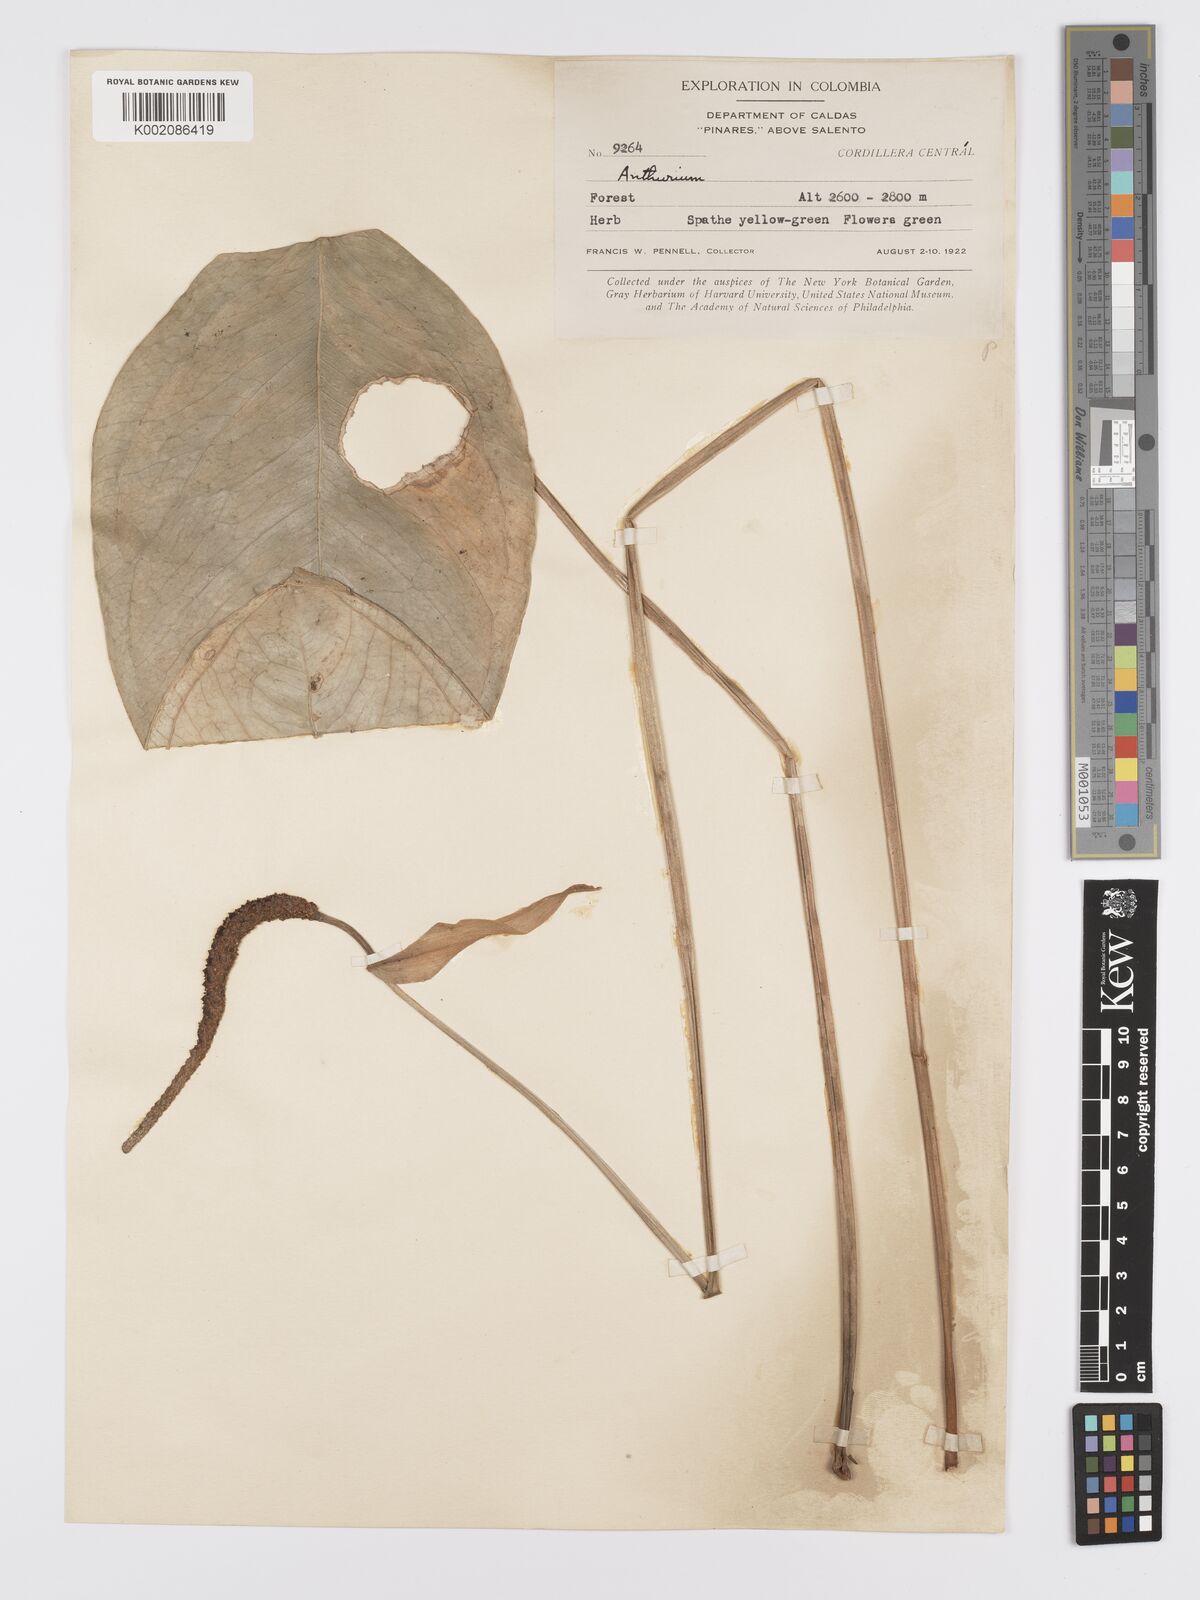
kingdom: Plantae
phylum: Tracheophyta
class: Liliopsida
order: Alismatales
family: Araceae
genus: Anthurium
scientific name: Anthurium longegeniculatum
